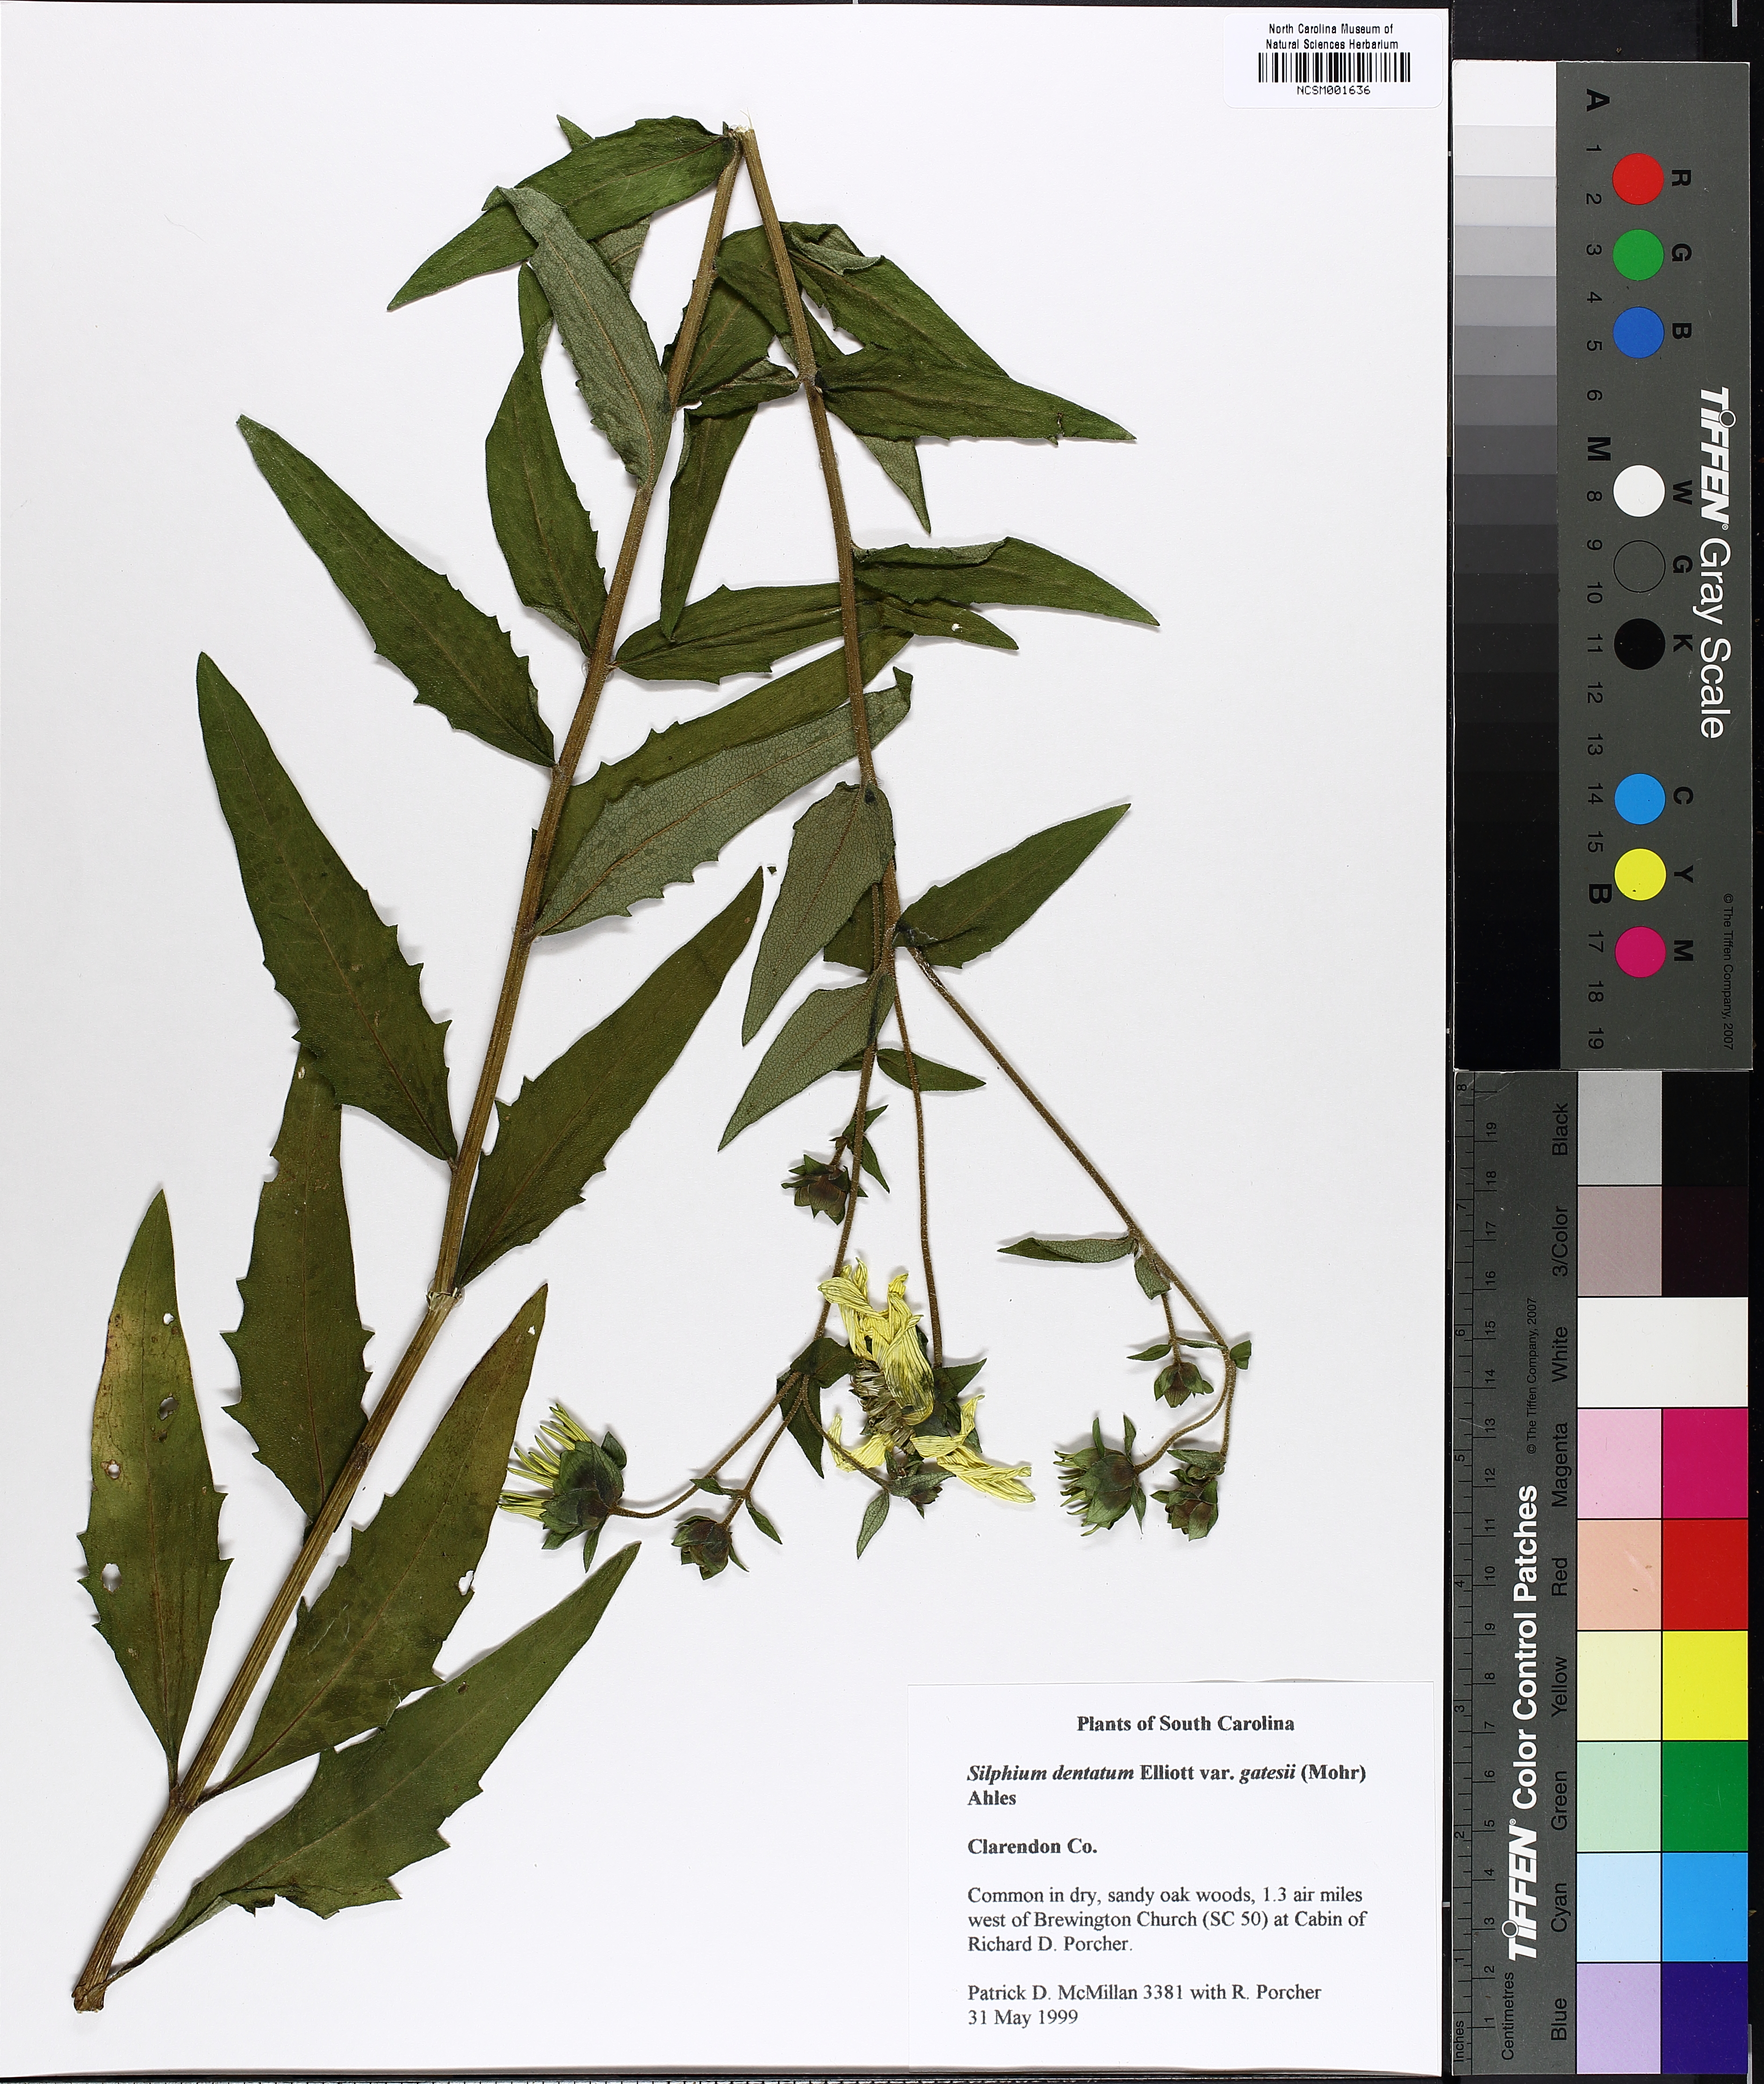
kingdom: Plantae
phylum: Tracheophyta
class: Magnoliopsida
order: Asterales
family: Asteraceae
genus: Silphium
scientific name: Silphium asperrimum
